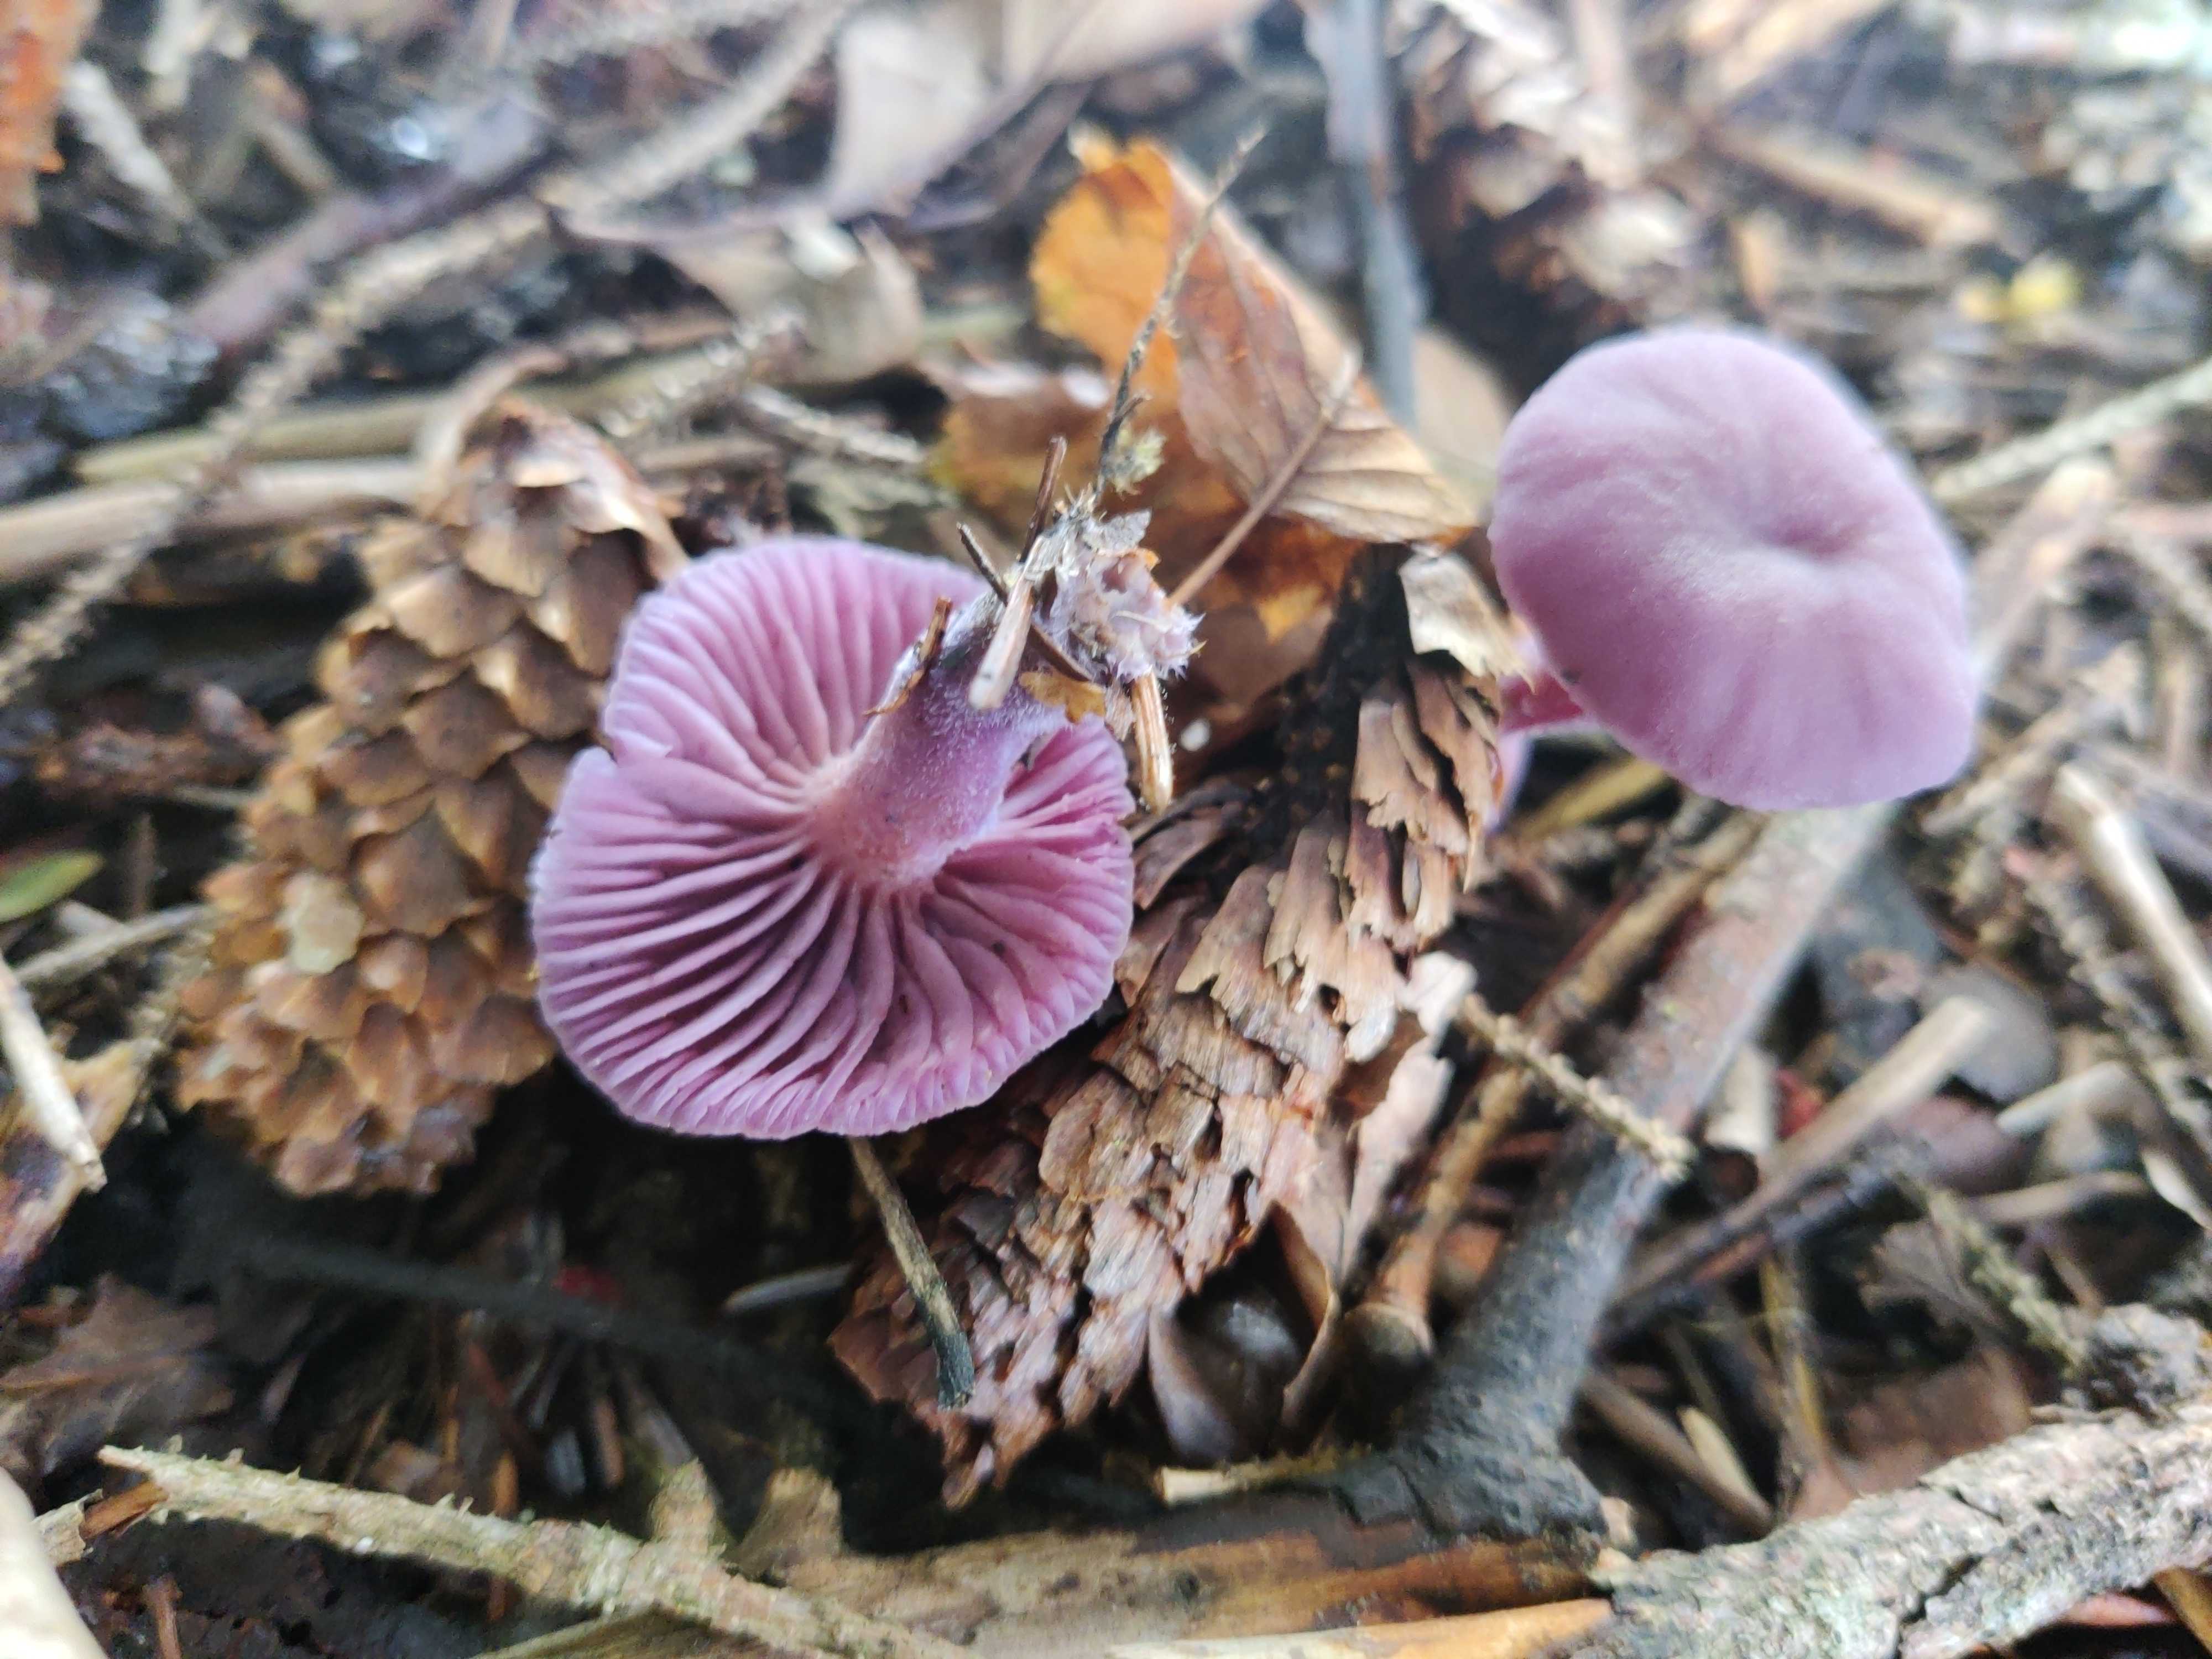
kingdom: Fungi
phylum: Basidiomycota
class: Agaricomycetes
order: Agaricales
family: Hydnangiaceae
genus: Laccaria
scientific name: Laccaria amethystina
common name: violet ametysthat
